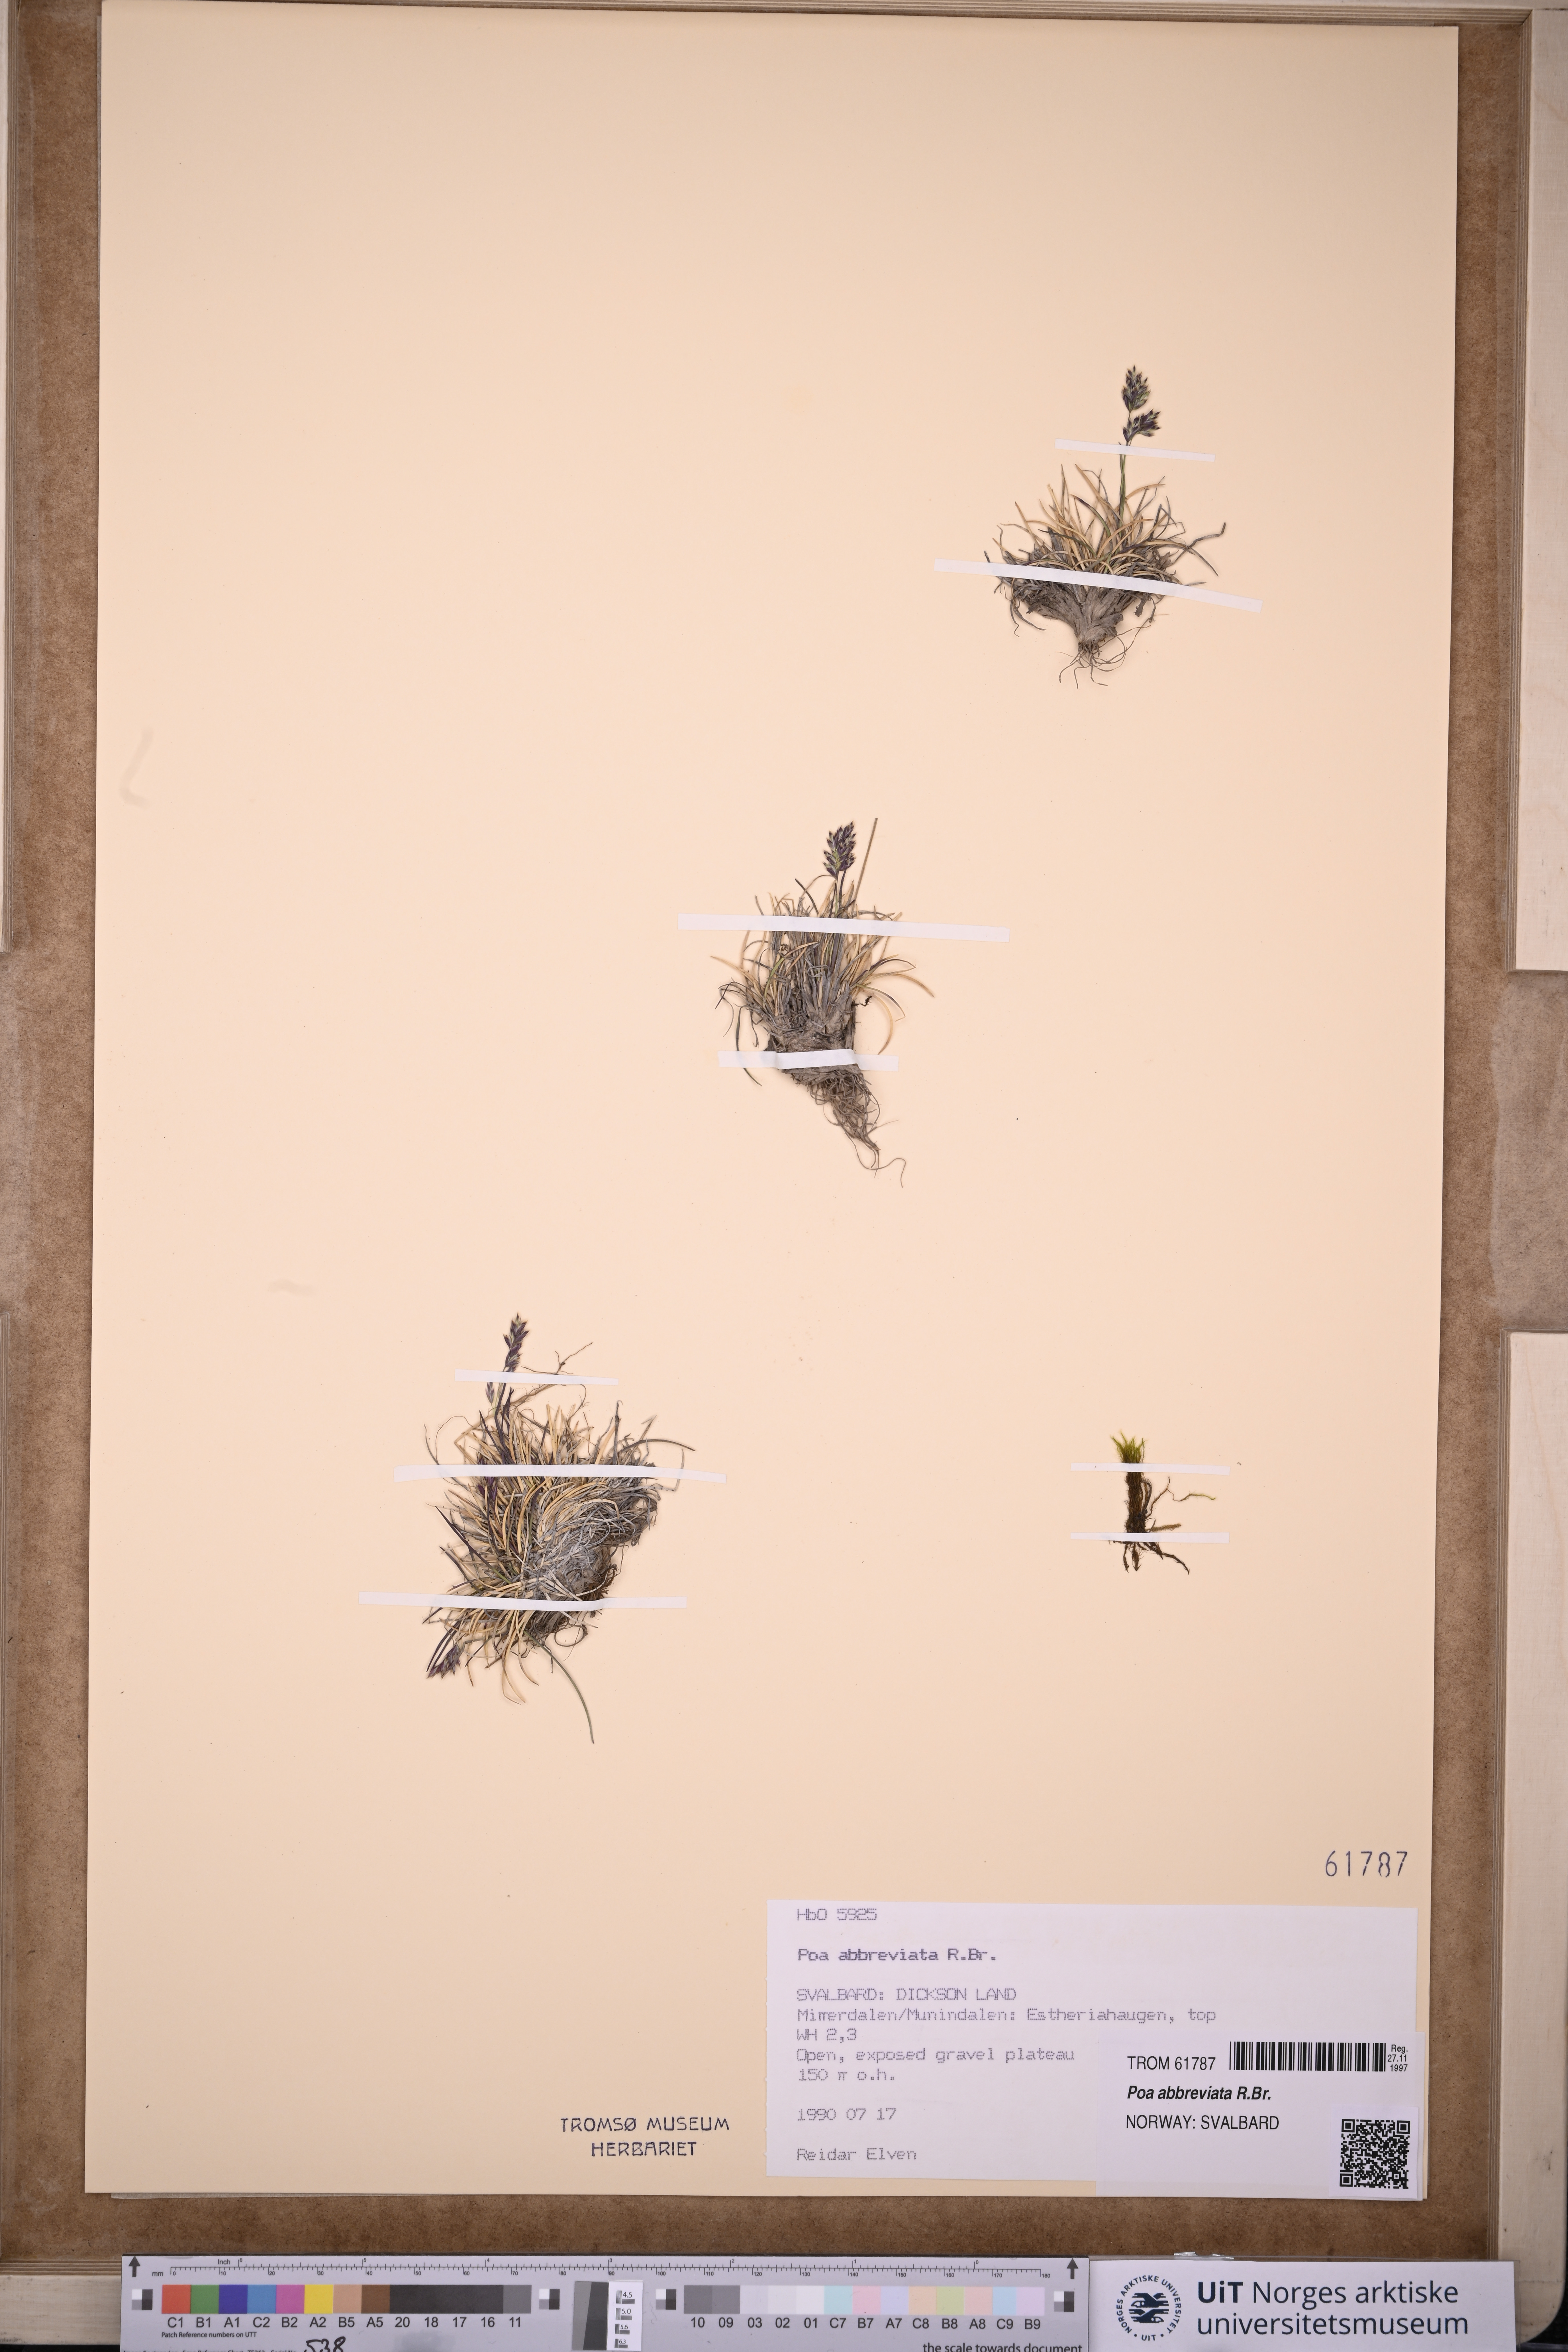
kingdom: Plantae
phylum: Tracheophyta
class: Liliopsida
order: Poales
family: Poaceae
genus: Poa
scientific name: Poa abbreviata
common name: Abbreviated bluegrass
